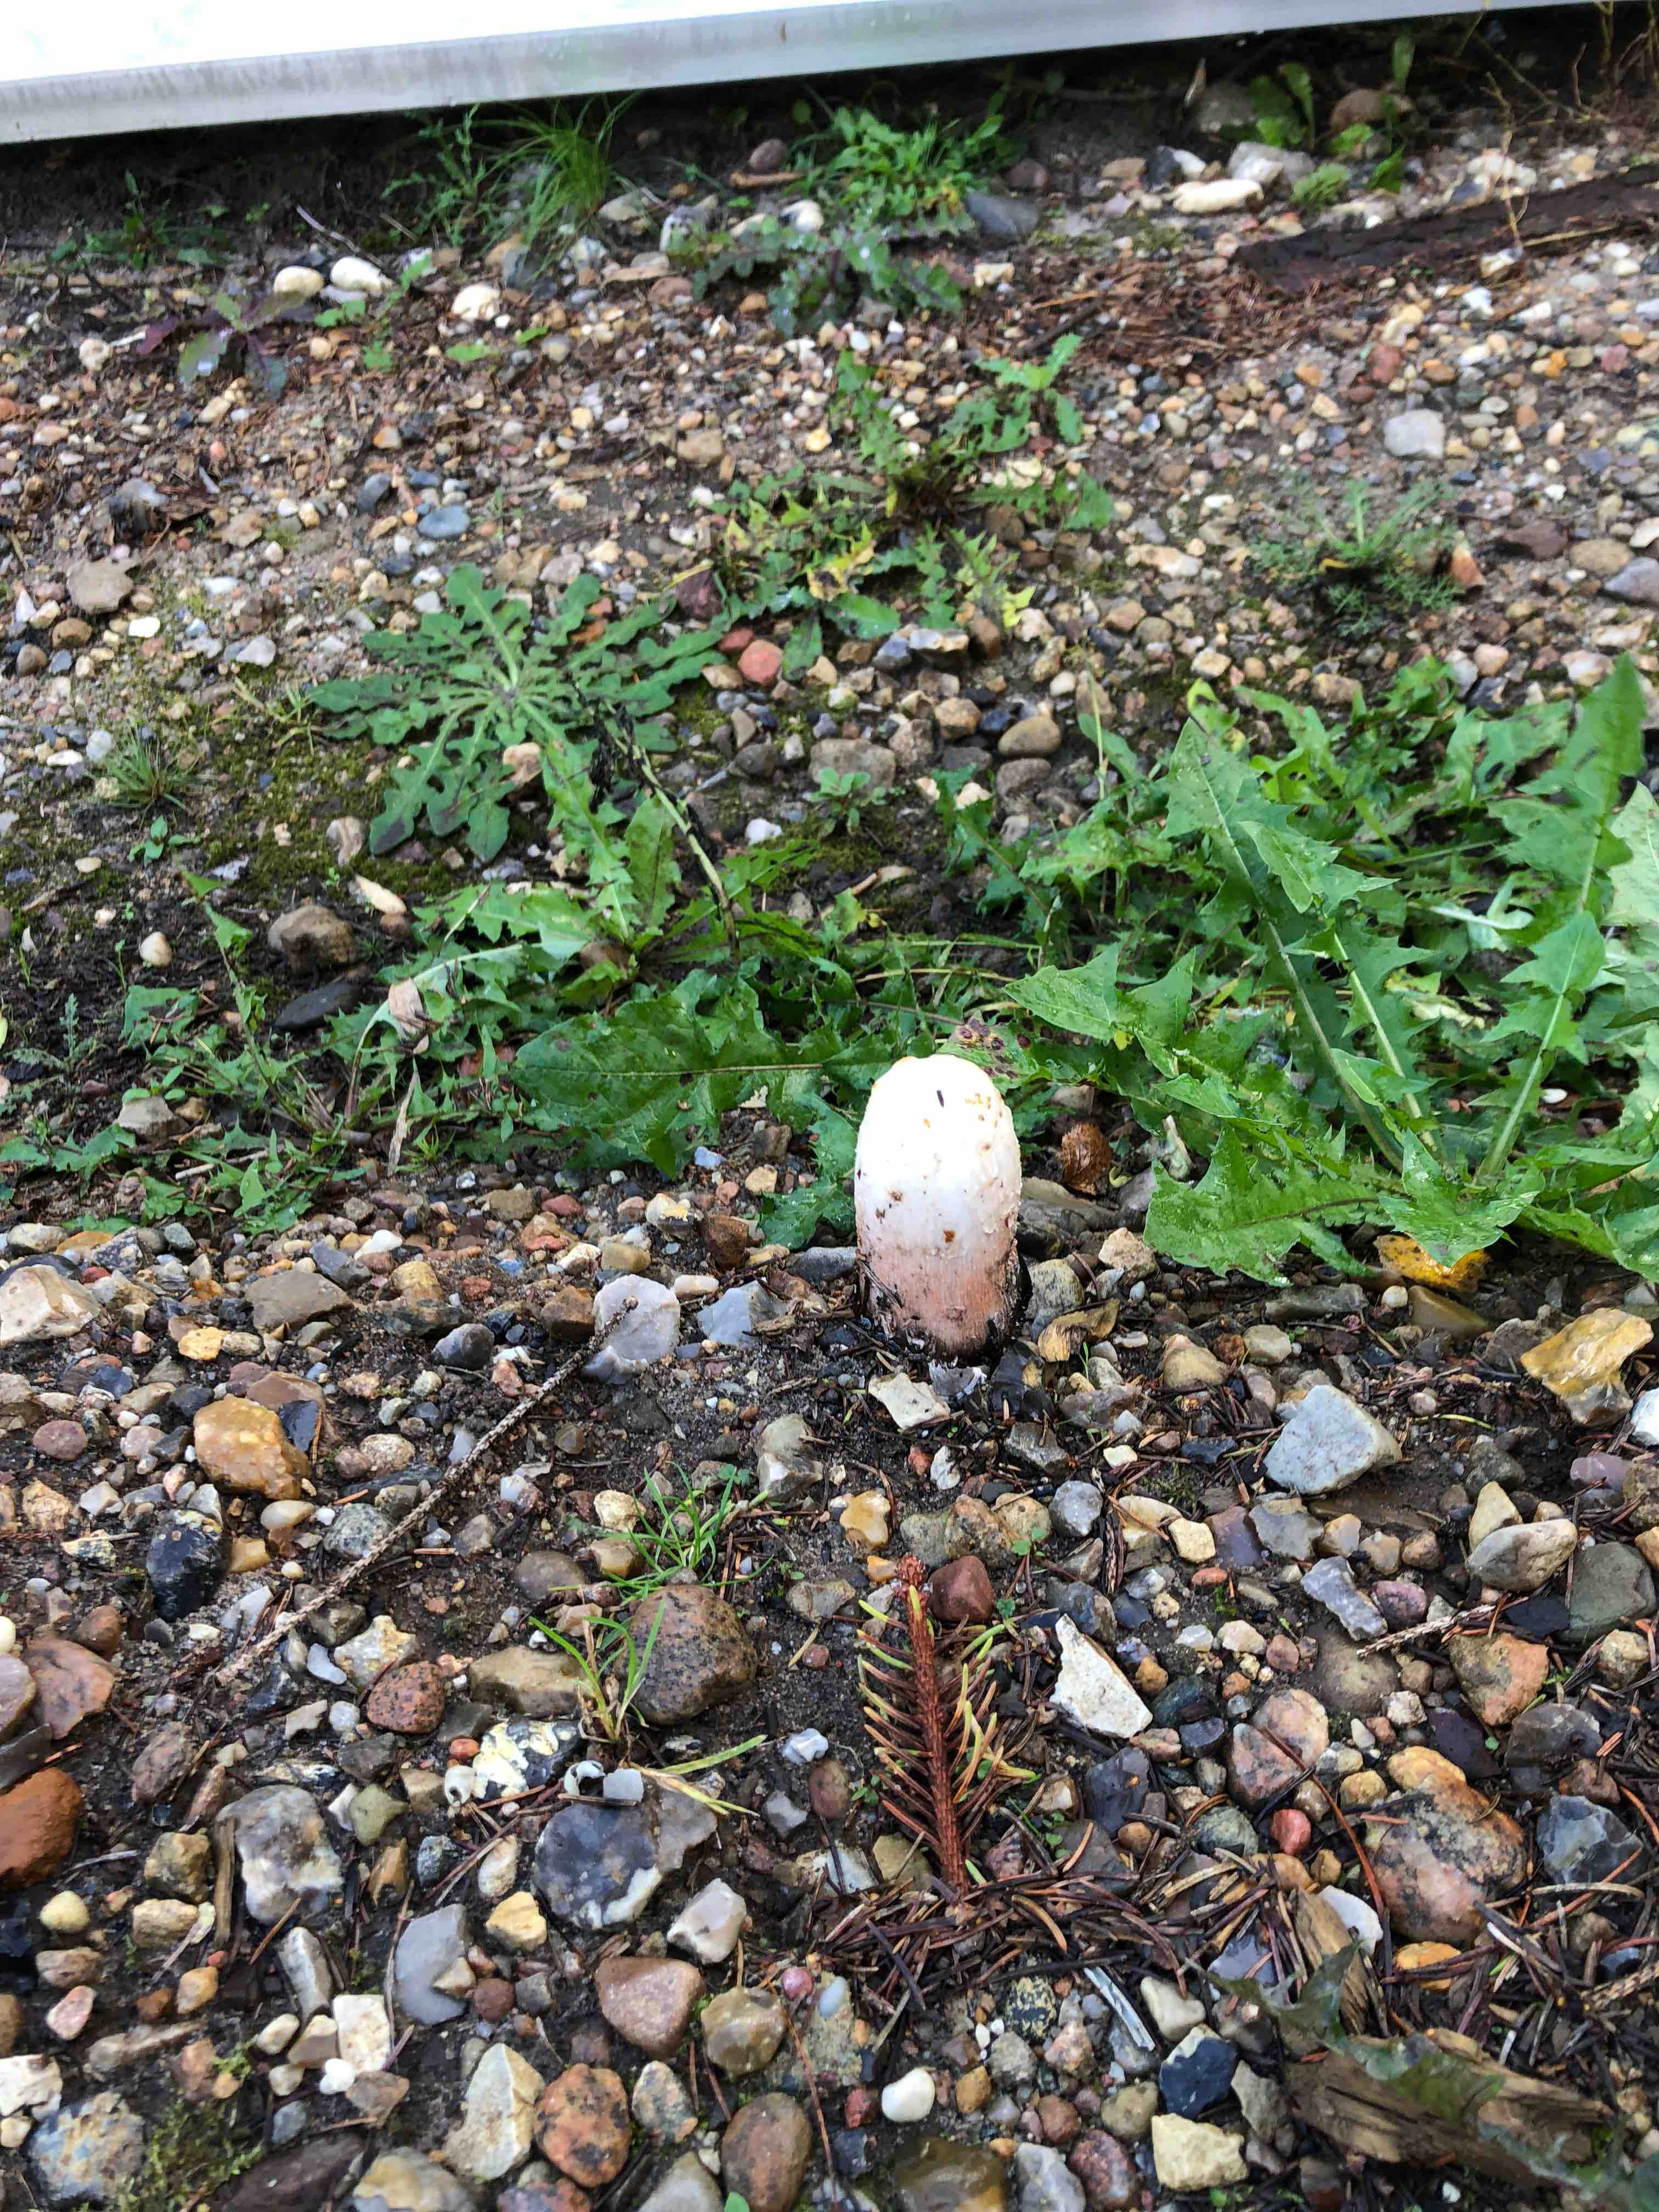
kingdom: Fungi
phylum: Basidiomycota
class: Agaricomycetes
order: Agaricales
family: Agaricaceae
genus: Coprinus
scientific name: Coprinus comatus
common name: stor parykhat
